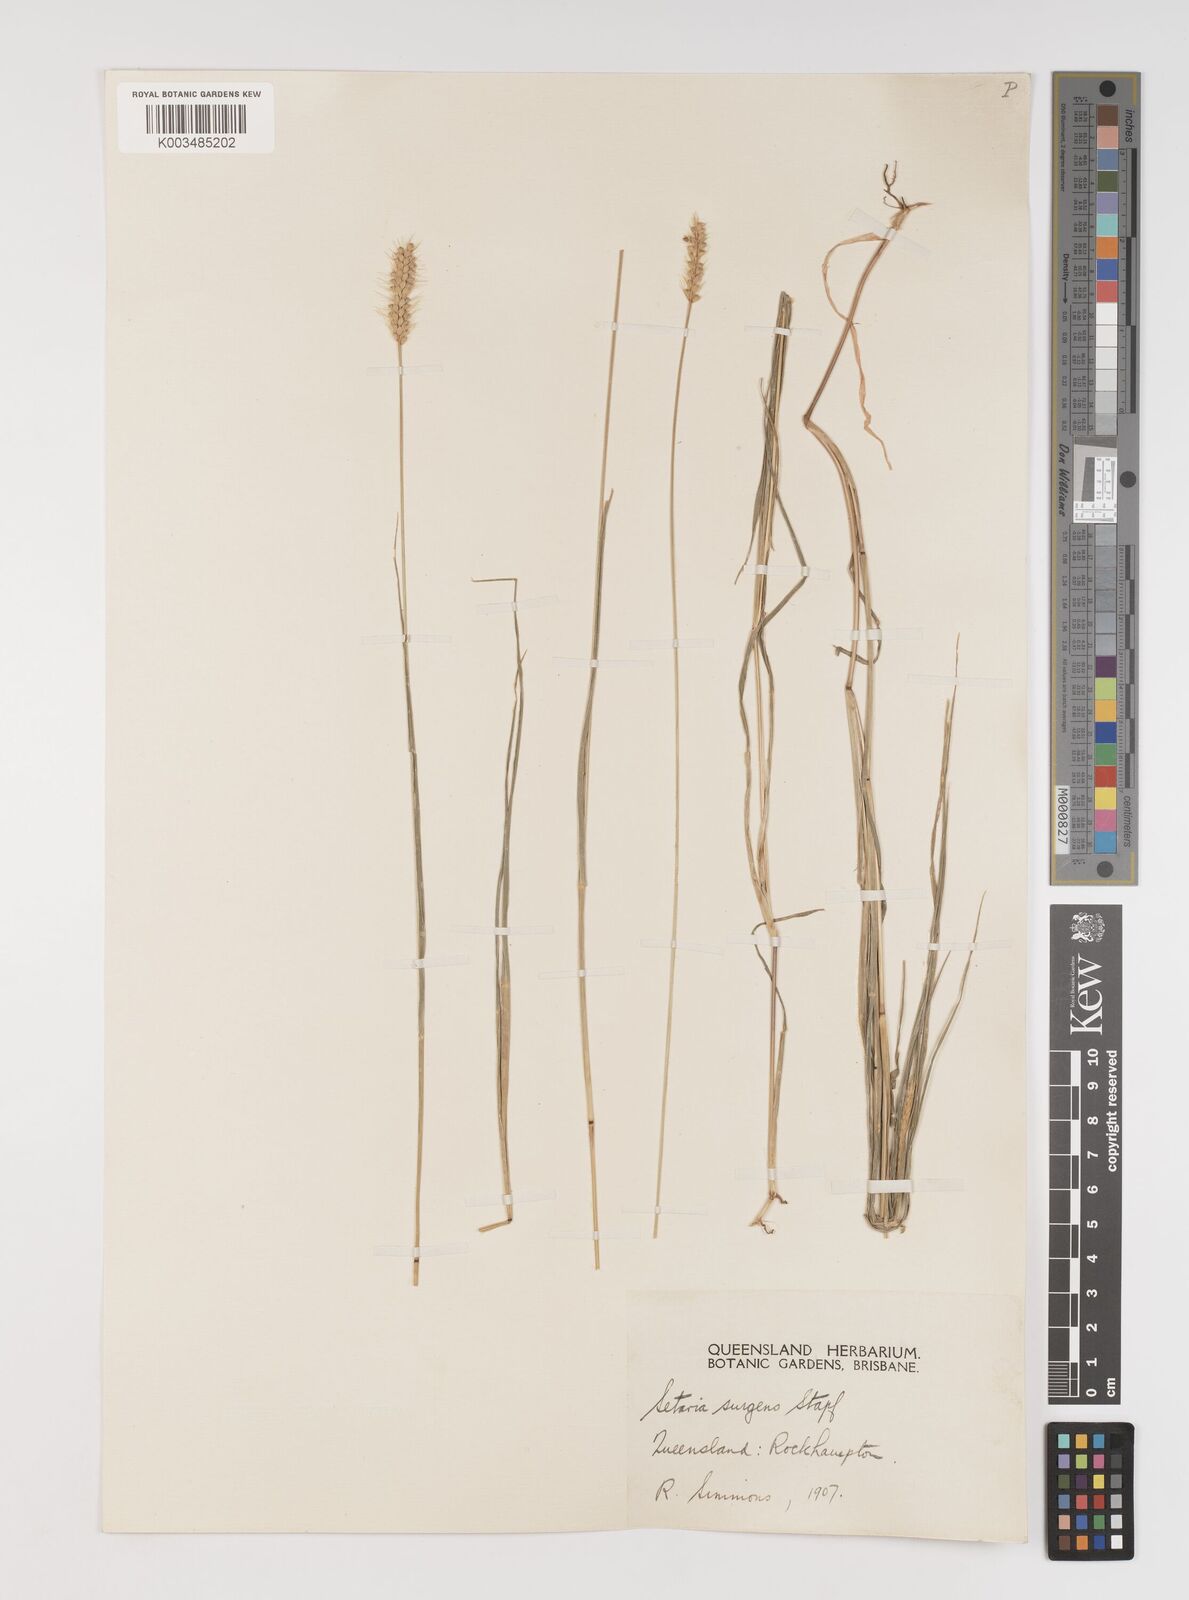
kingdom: Plantae
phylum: Tracheophyta
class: Liliopsida
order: Poales
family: Poaceae
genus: Setaria
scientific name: Setaria apiculata
